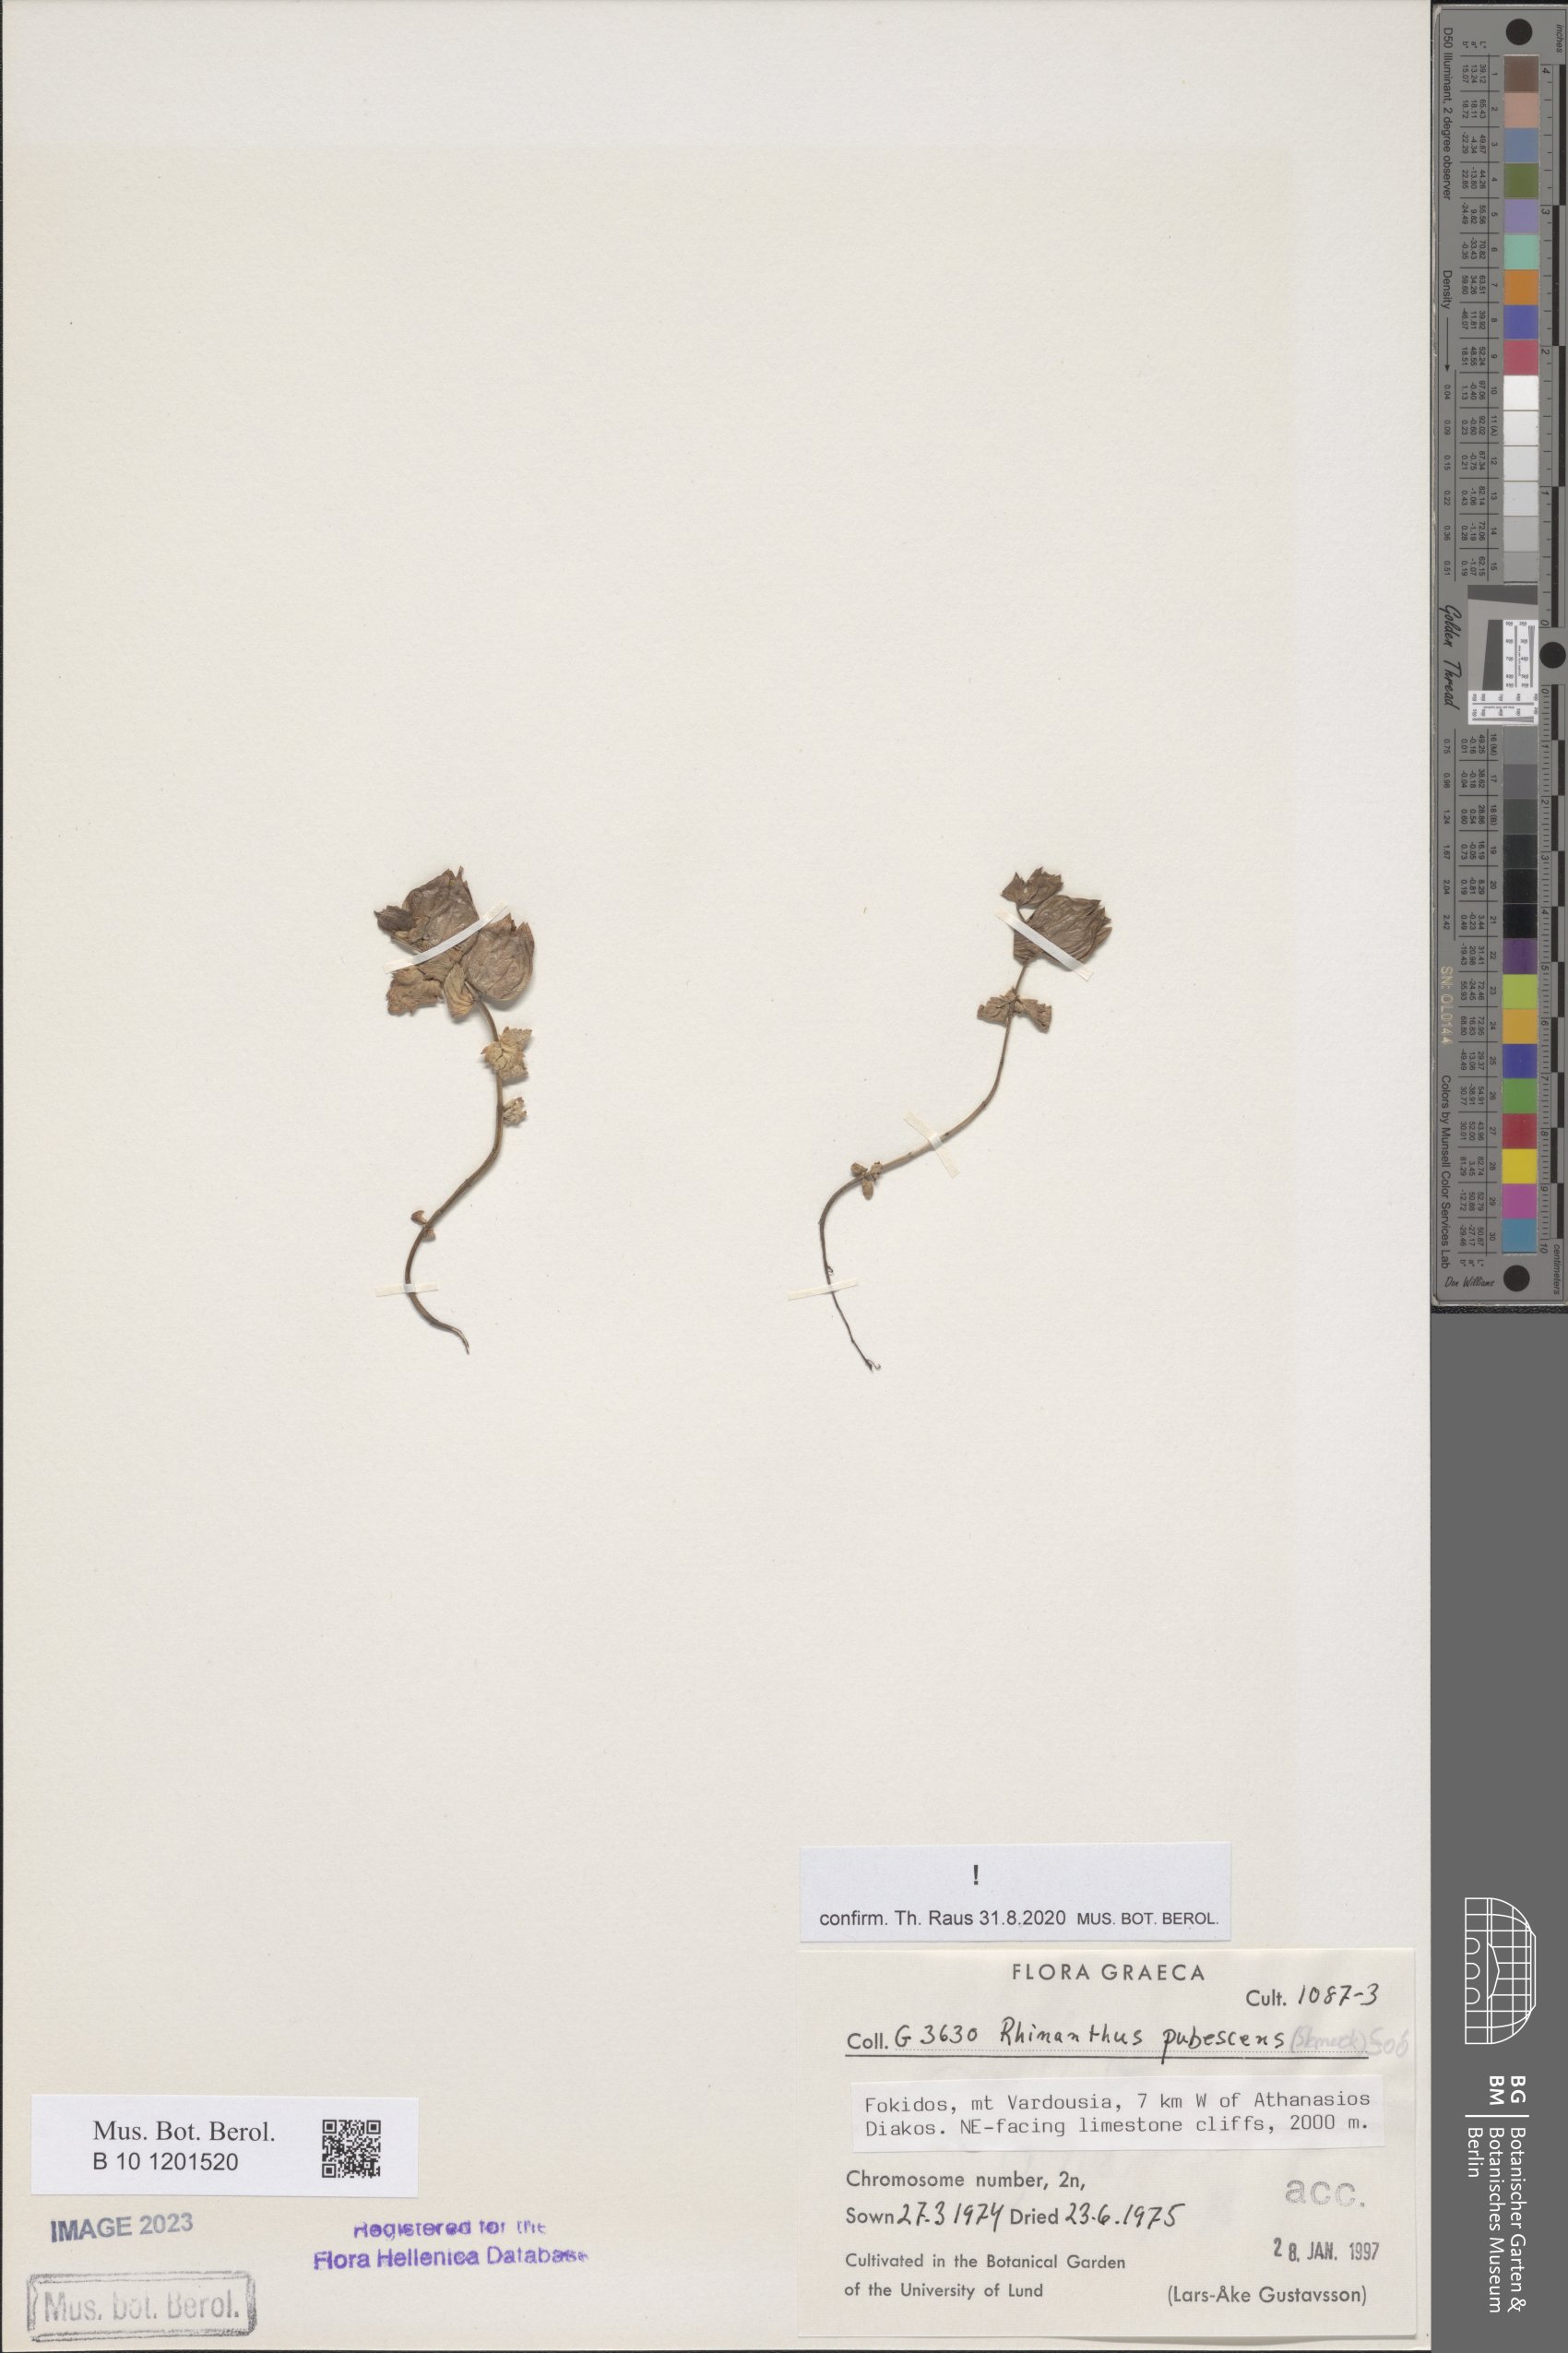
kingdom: Plantae
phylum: Tracheophyta
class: Magnoliopsida
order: Lamiales
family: Orobanchaceae
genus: Rhinanthus
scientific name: Rhinanthus pubescens
